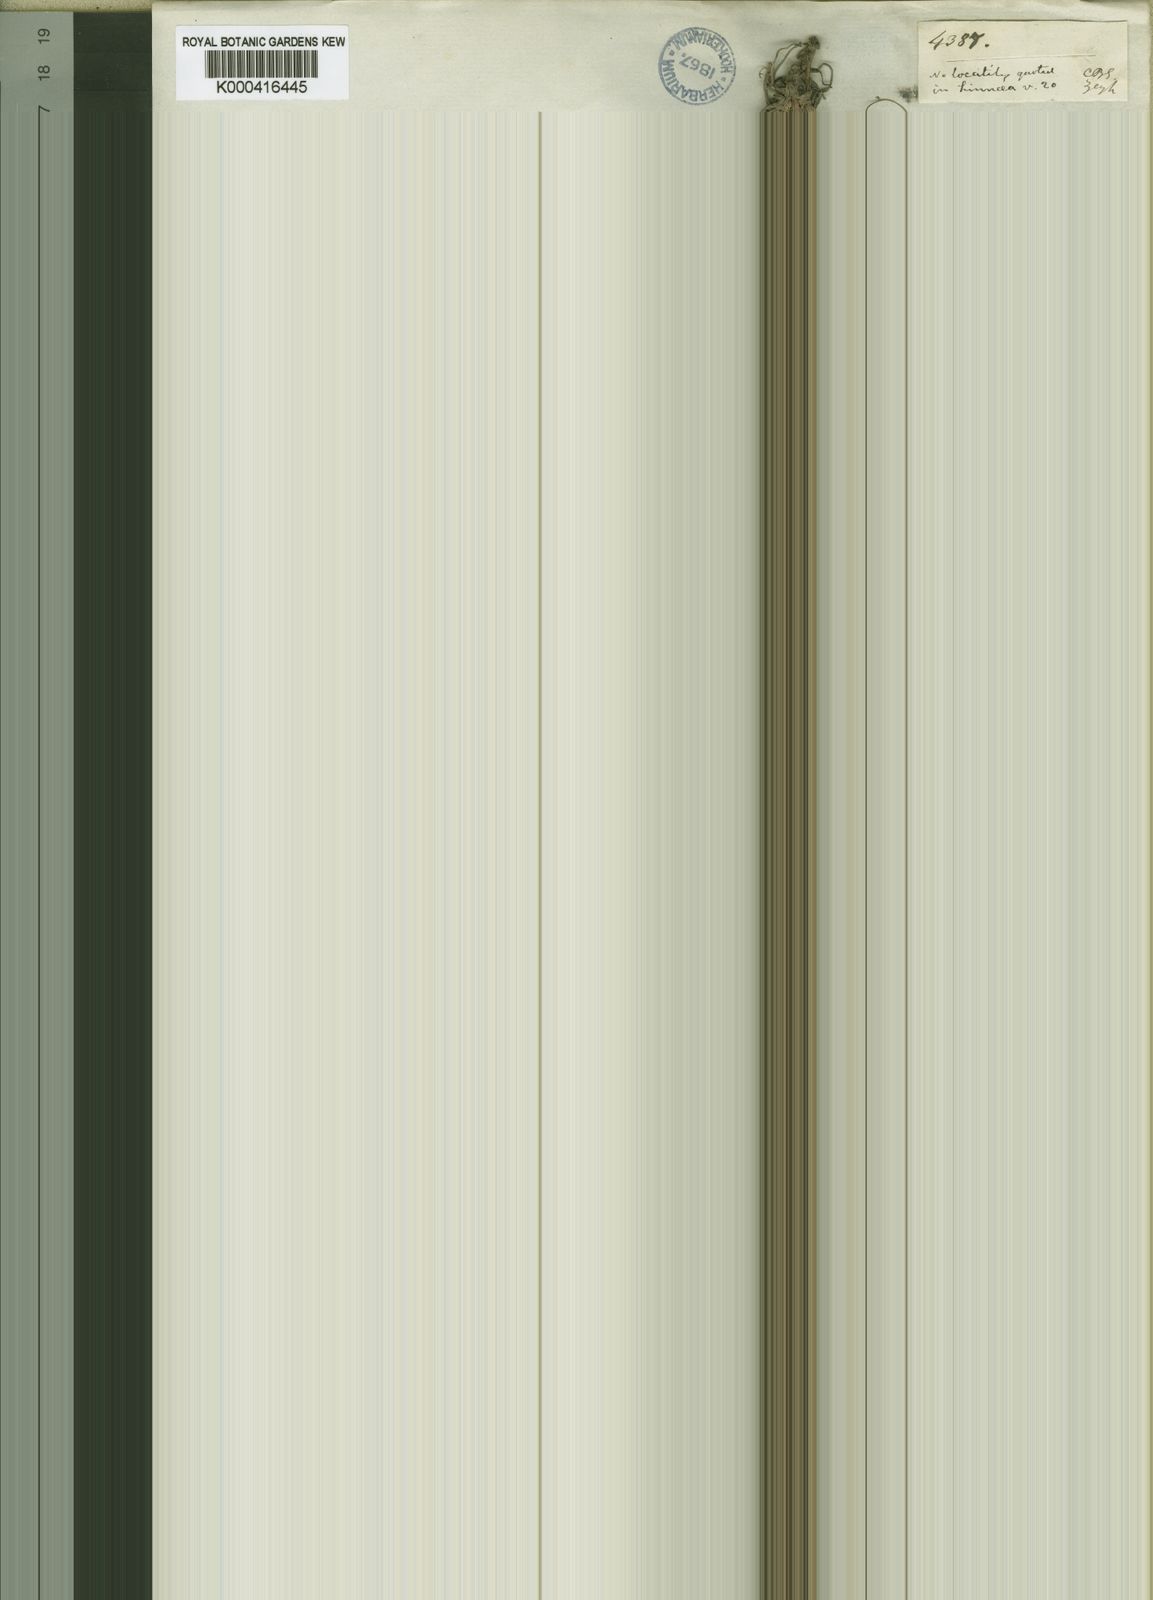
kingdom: Plantae
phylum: Tracheophyta
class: Liliopsida
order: Poales
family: Cyperaceae
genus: Ficinia
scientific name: Ficinia sylvatica
